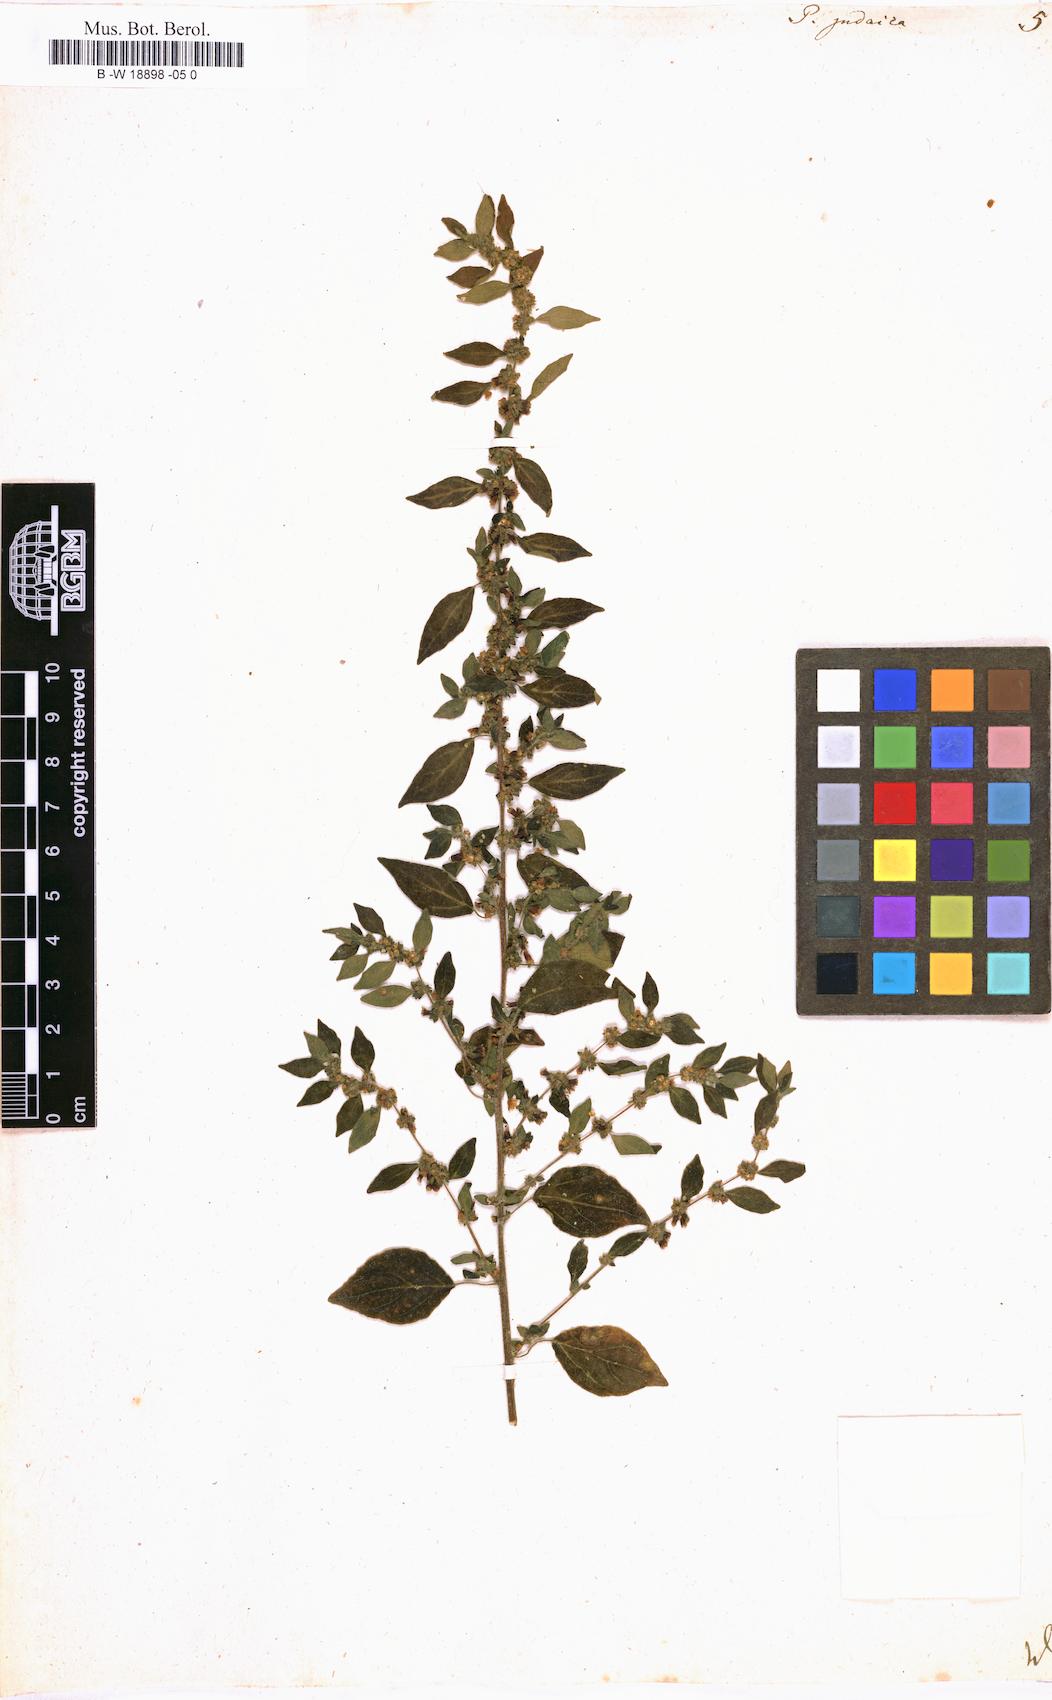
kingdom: Plantae
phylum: Tracheophyta
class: Magnoliopsida
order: Rosales
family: Urticaceae
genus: Parietaria
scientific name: Parietaria judaica
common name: Pellitory-of-the-wall
